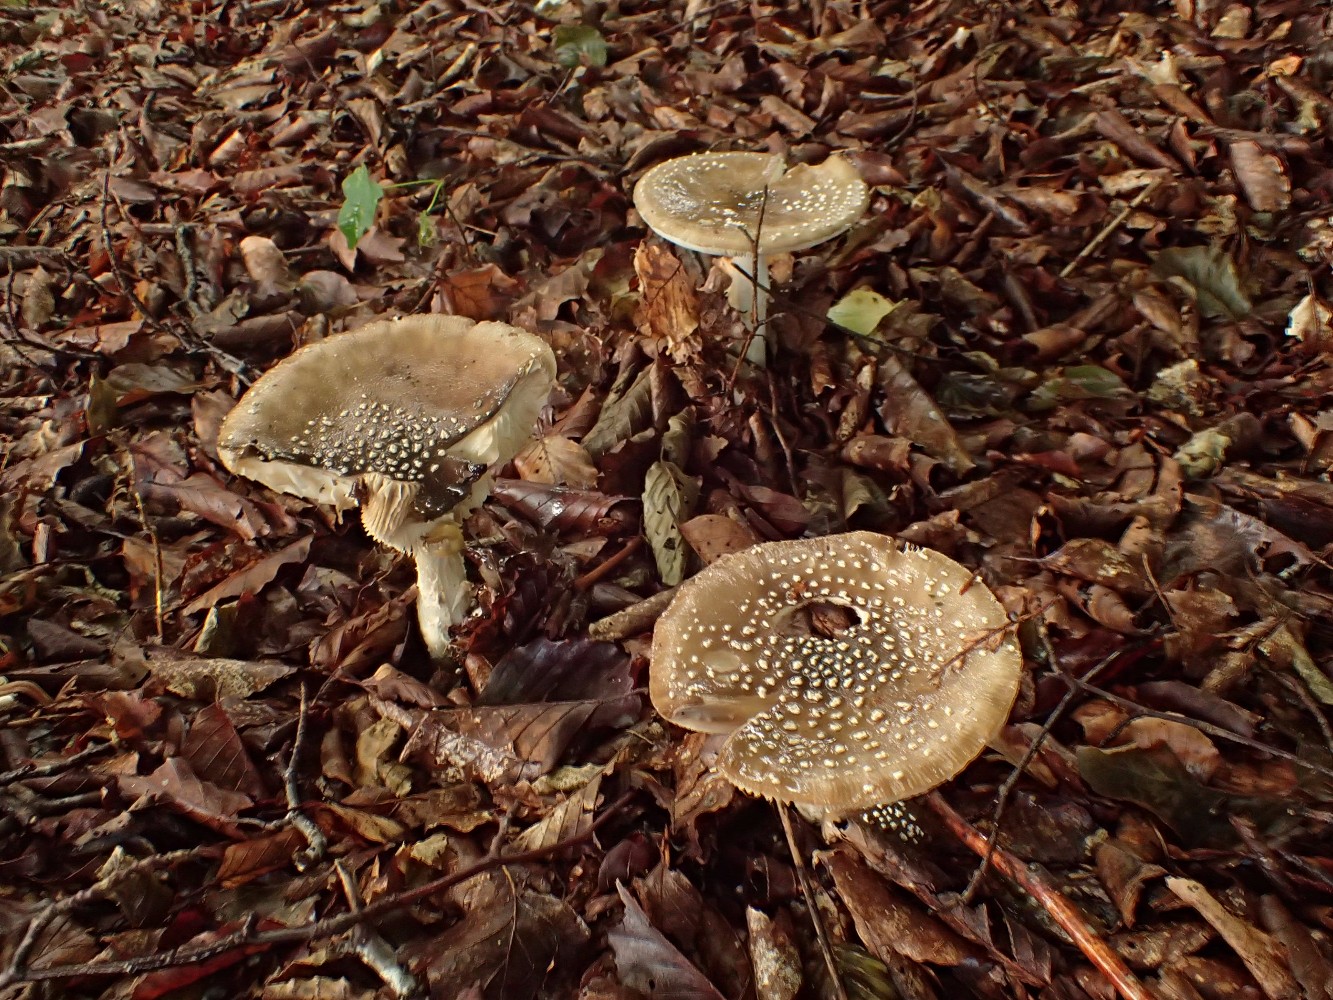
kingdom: Fungi
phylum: Basidiomycota
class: Agaricomycetes
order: Agaricales
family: Amanitaceae
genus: Amanita
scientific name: Amanita pantherina
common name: panter-fluesvamp
